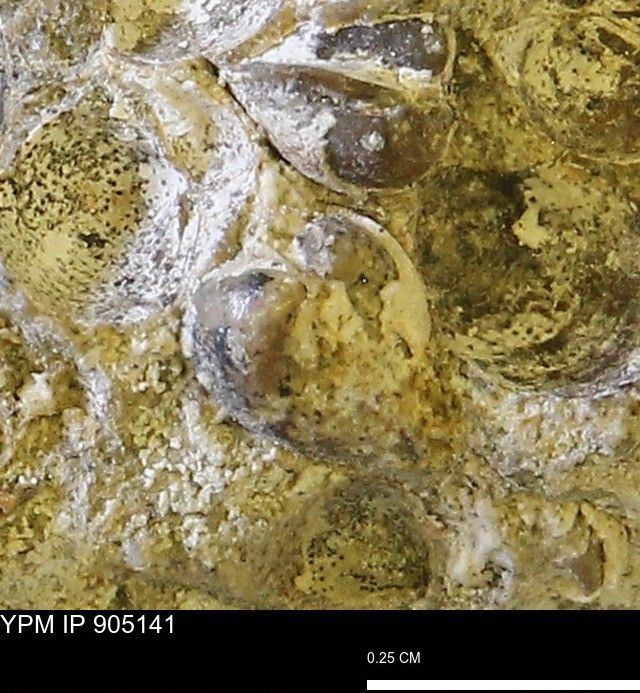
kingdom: Animalia
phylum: Mollusca
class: Bivalvia
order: Myida
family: Corbulidae
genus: Corbulamella
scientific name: Corbulamella
